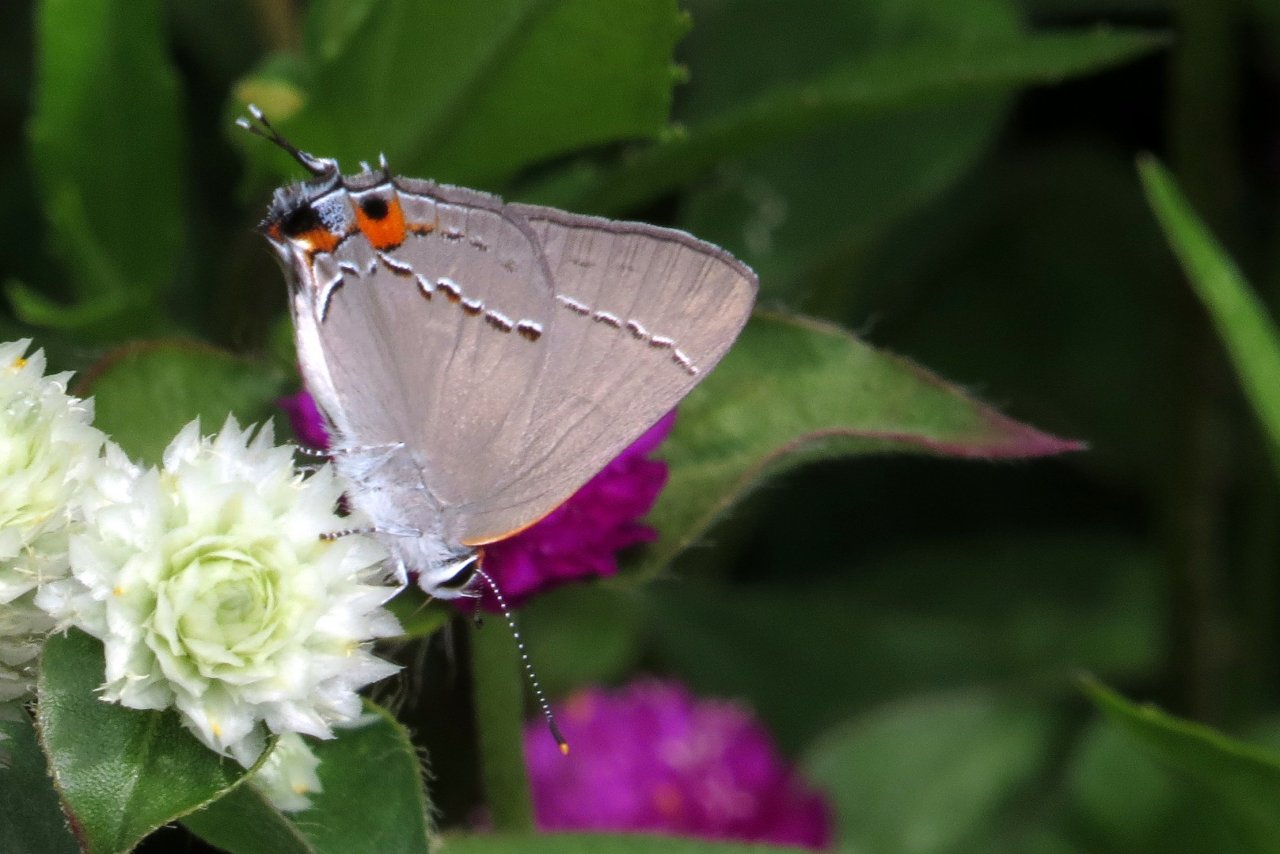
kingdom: Animalia
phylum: Arthropoda
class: Insecta
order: Lepidoptera
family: Lycaenidae
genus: Strymon
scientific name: Strymon melinus
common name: Gray Hairstreak
